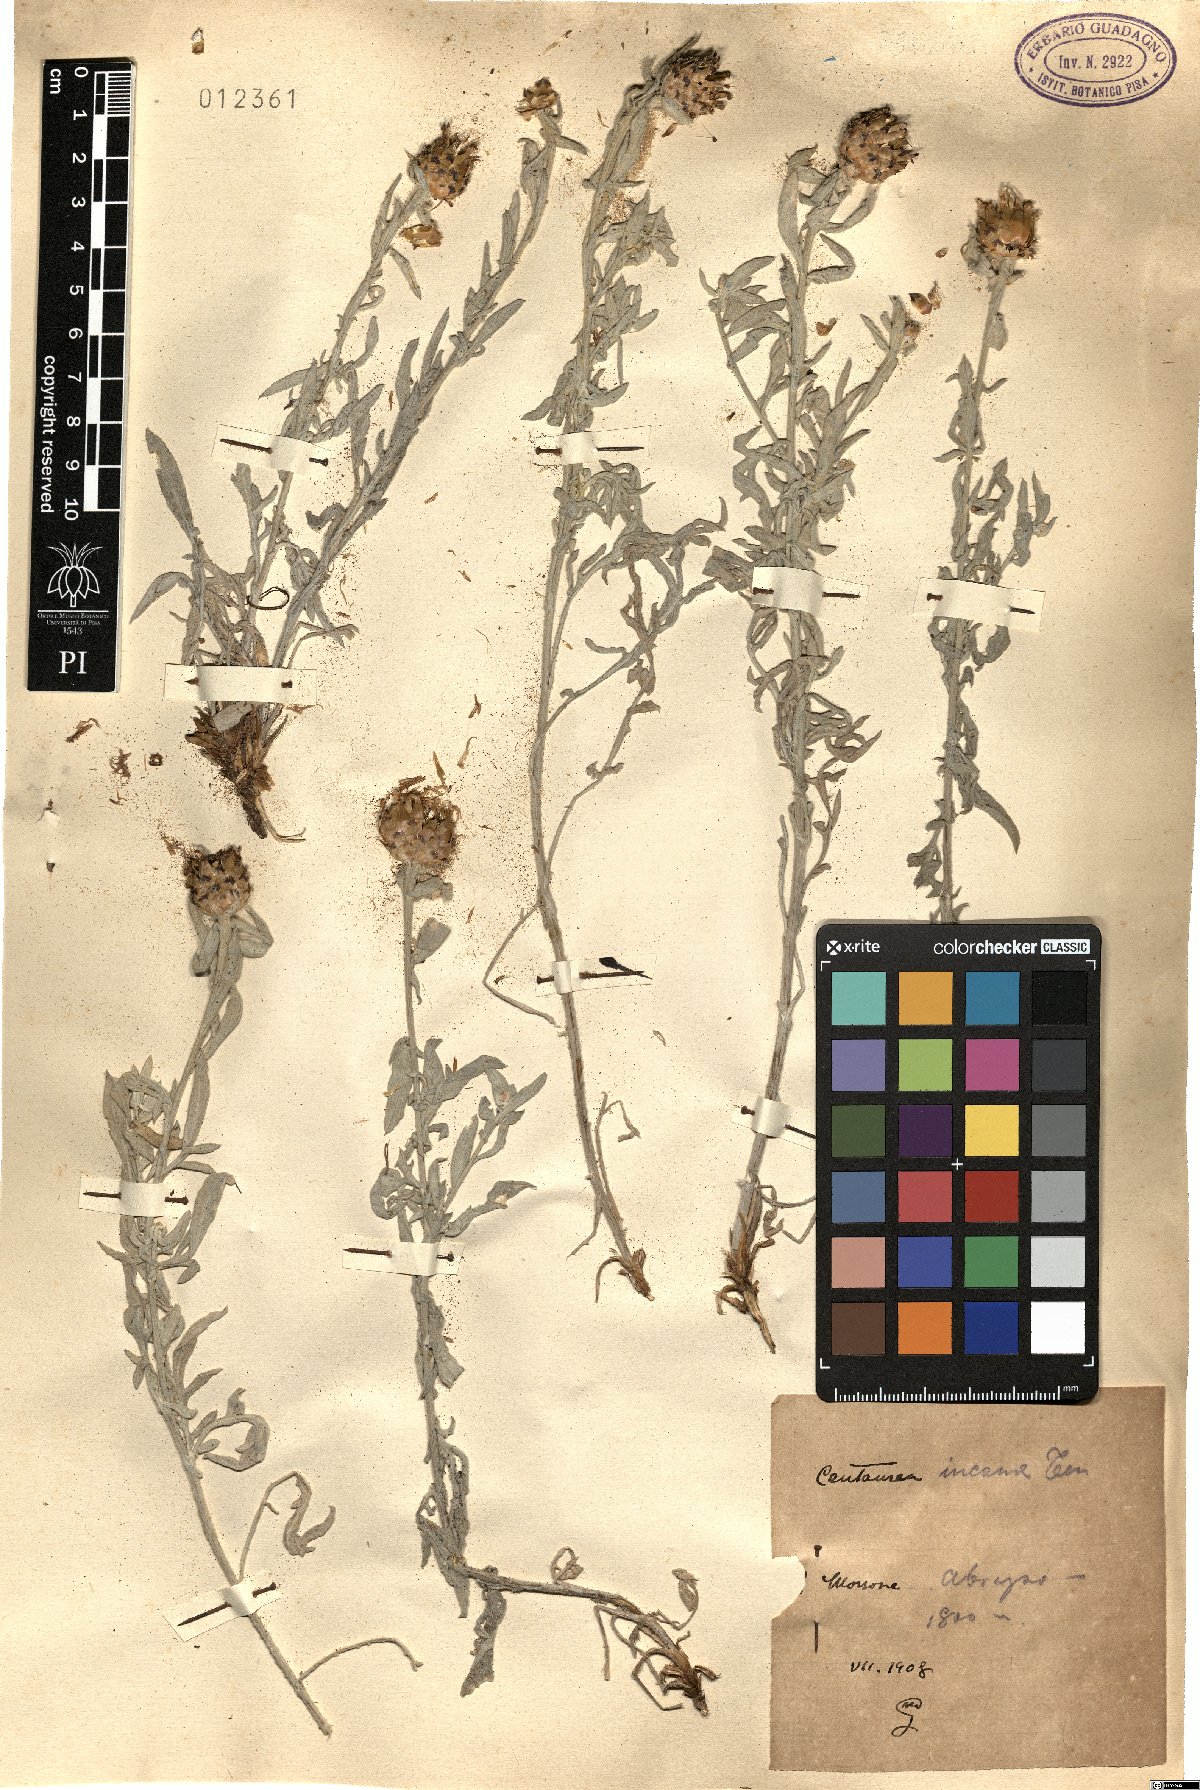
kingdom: Plantae
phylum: Tracheophyta
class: Magnoliopsida
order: Asterales
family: Asteraceae
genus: Centaurea
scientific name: Centaurea tenoreana
